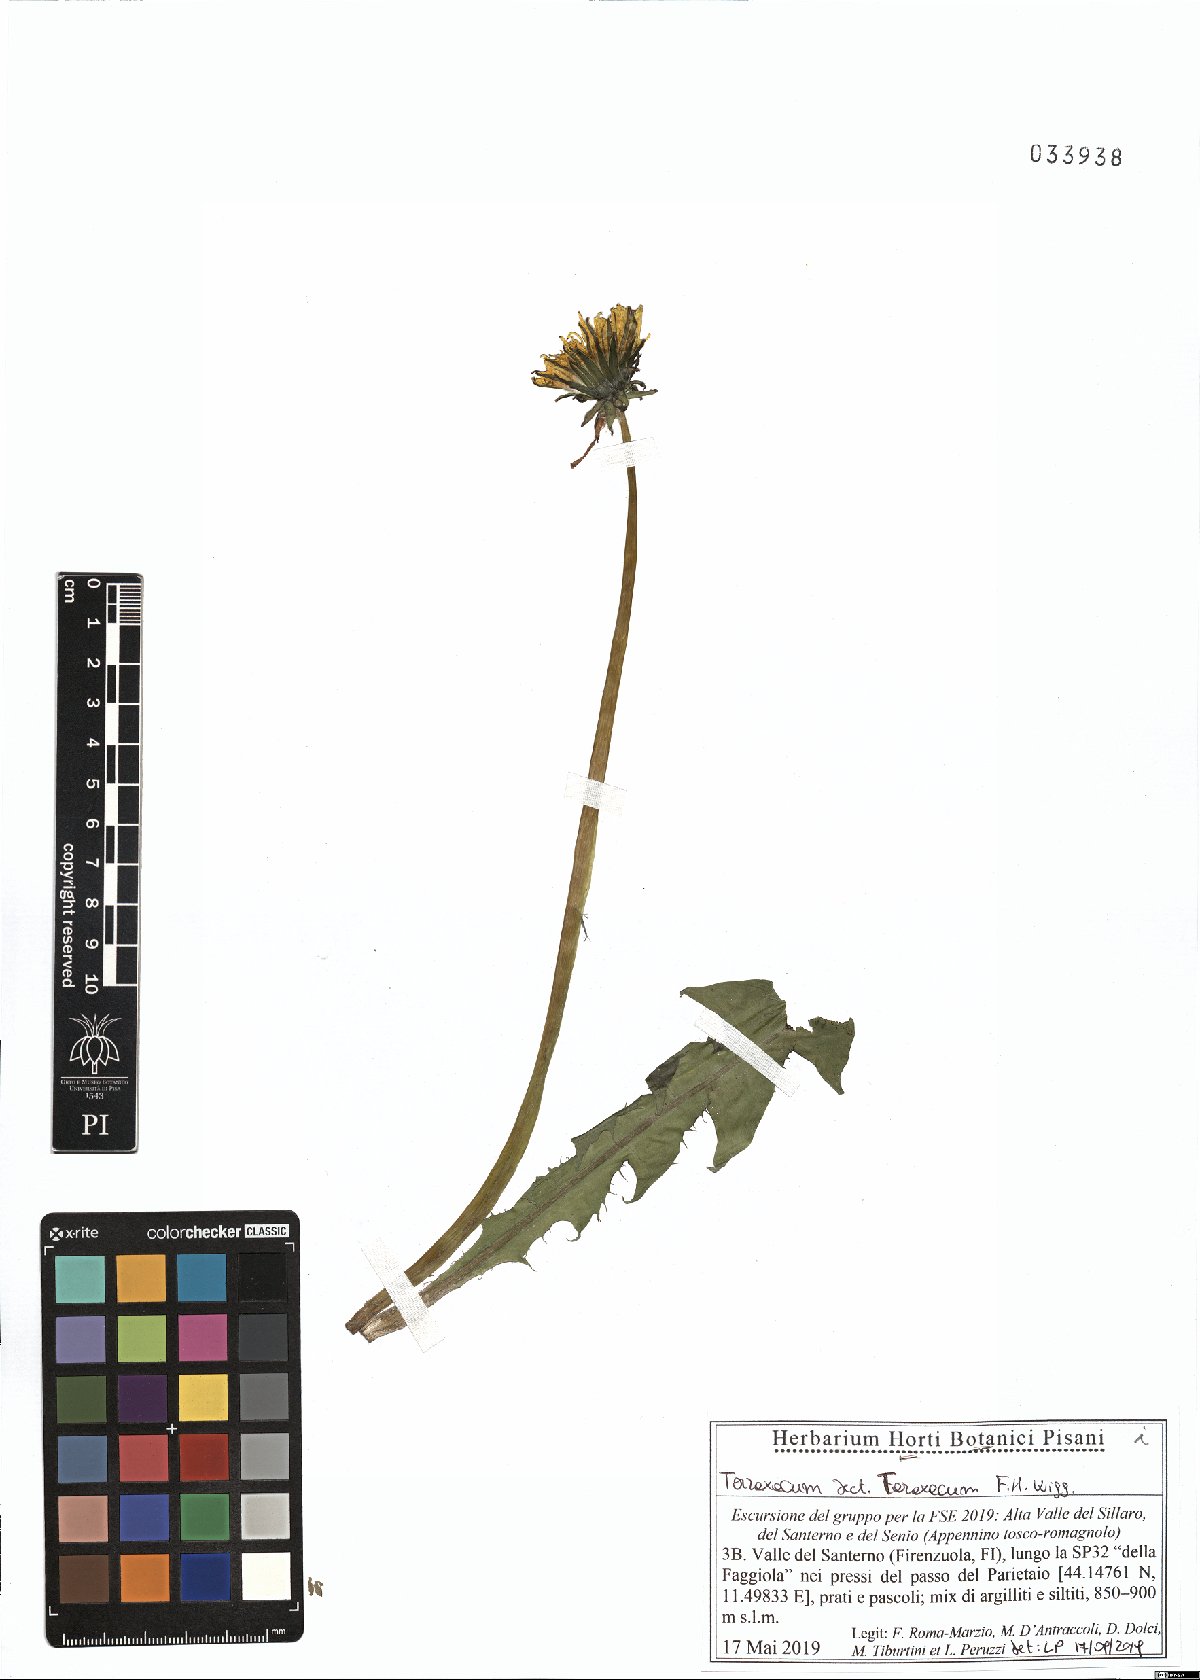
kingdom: Plantae
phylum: Tracheophyta
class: Magnoliopsida
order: Asterales
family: Asteraceae
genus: Taraxacum
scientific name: Taraxacum officinale
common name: Common dandelion
